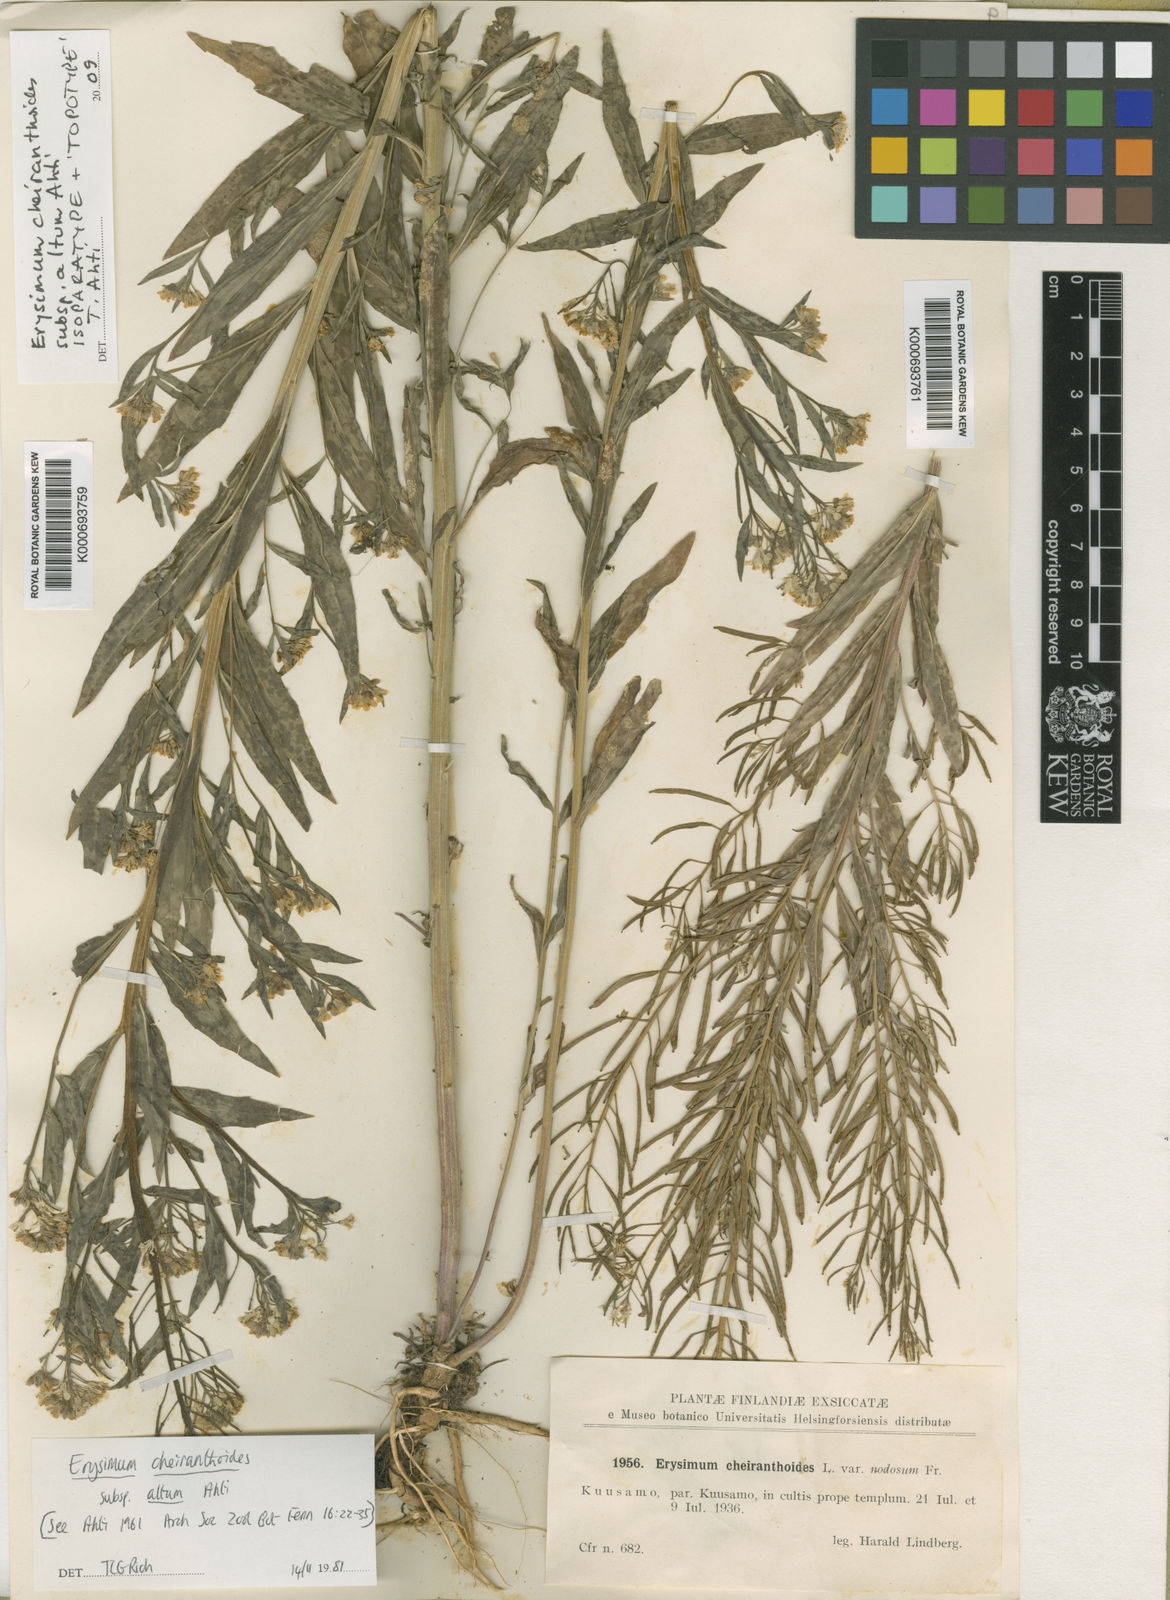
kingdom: Plantae
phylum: Tracheophyta
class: Magnoliopsida
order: Brassicales
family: Brassicaceae
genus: Erysimum
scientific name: Erysimum cheiranthoides
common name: Treacle mustard
